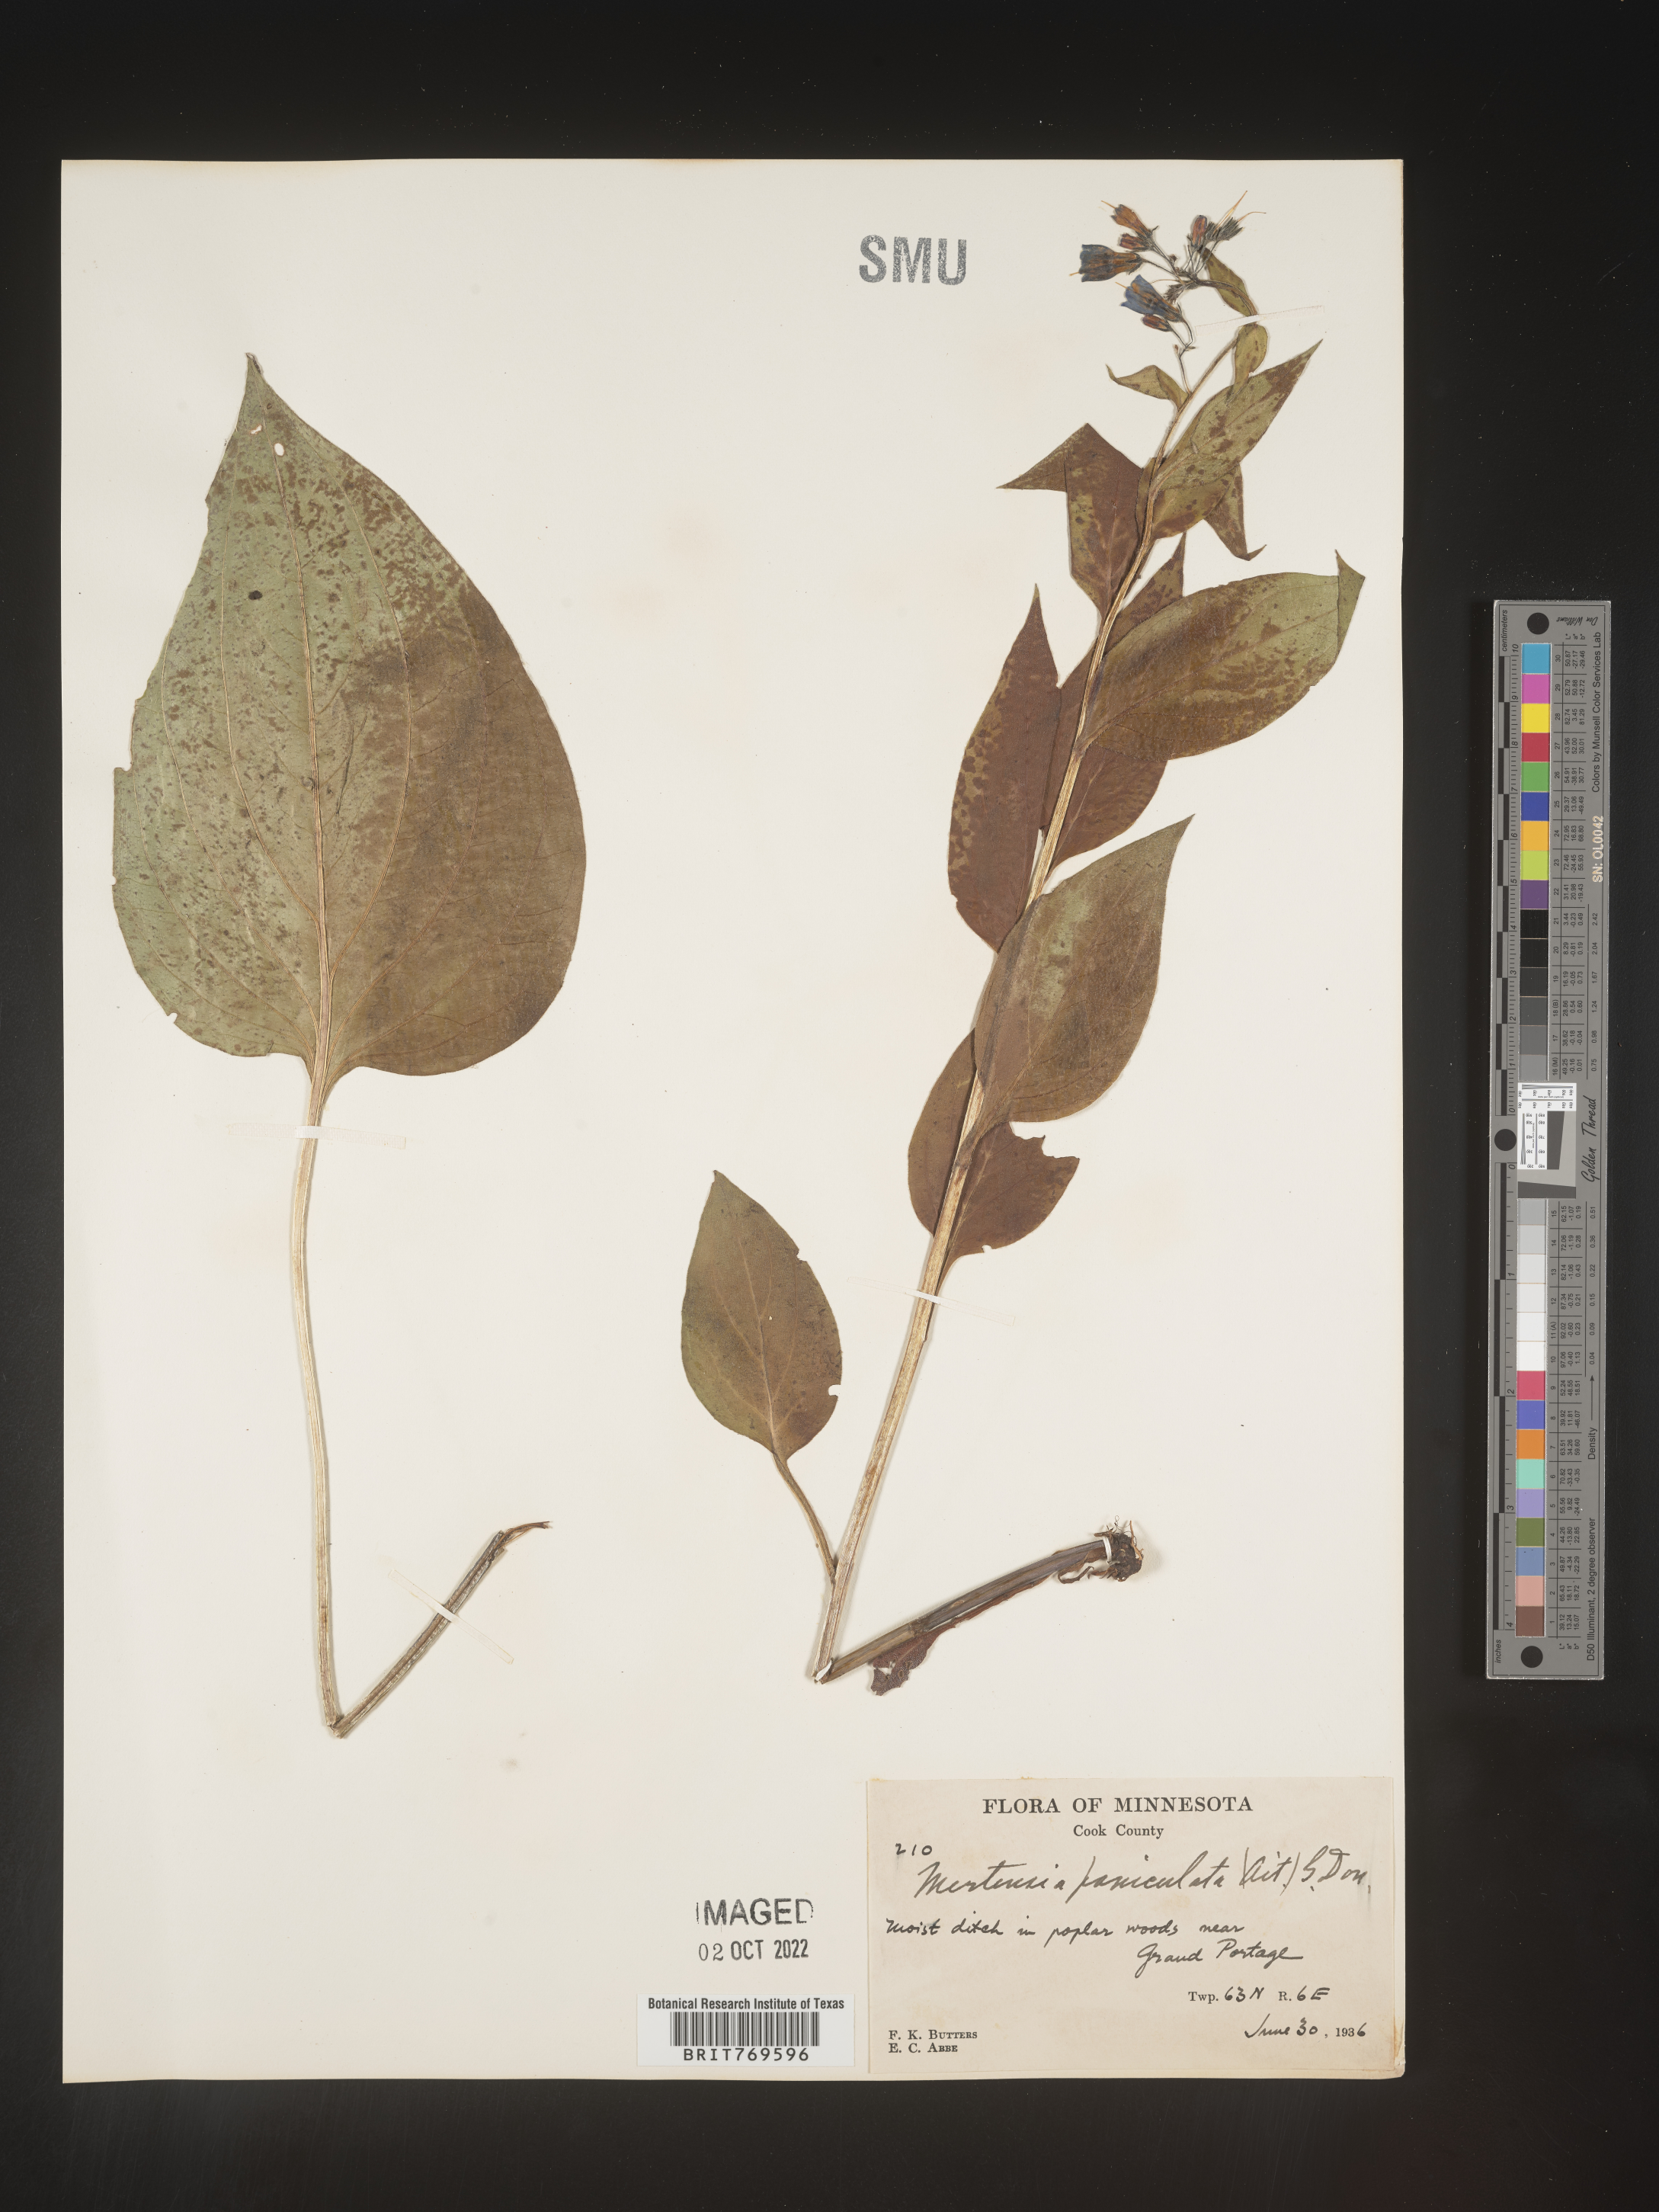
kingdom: Plantae
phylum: Tracheophyta
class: Magnoliopsida
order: Boraginales
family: Boraginaceae
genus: Mertensia
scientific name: Mertensia
